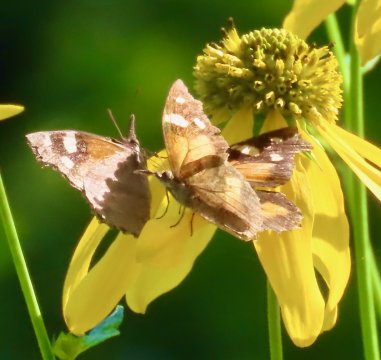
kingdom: Animalia
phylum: Arthropoda
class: Insecta
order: Lepidoptera
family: Nymphalidae
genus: Libytheana
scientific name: Libytheana carinenta
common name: American Snout
